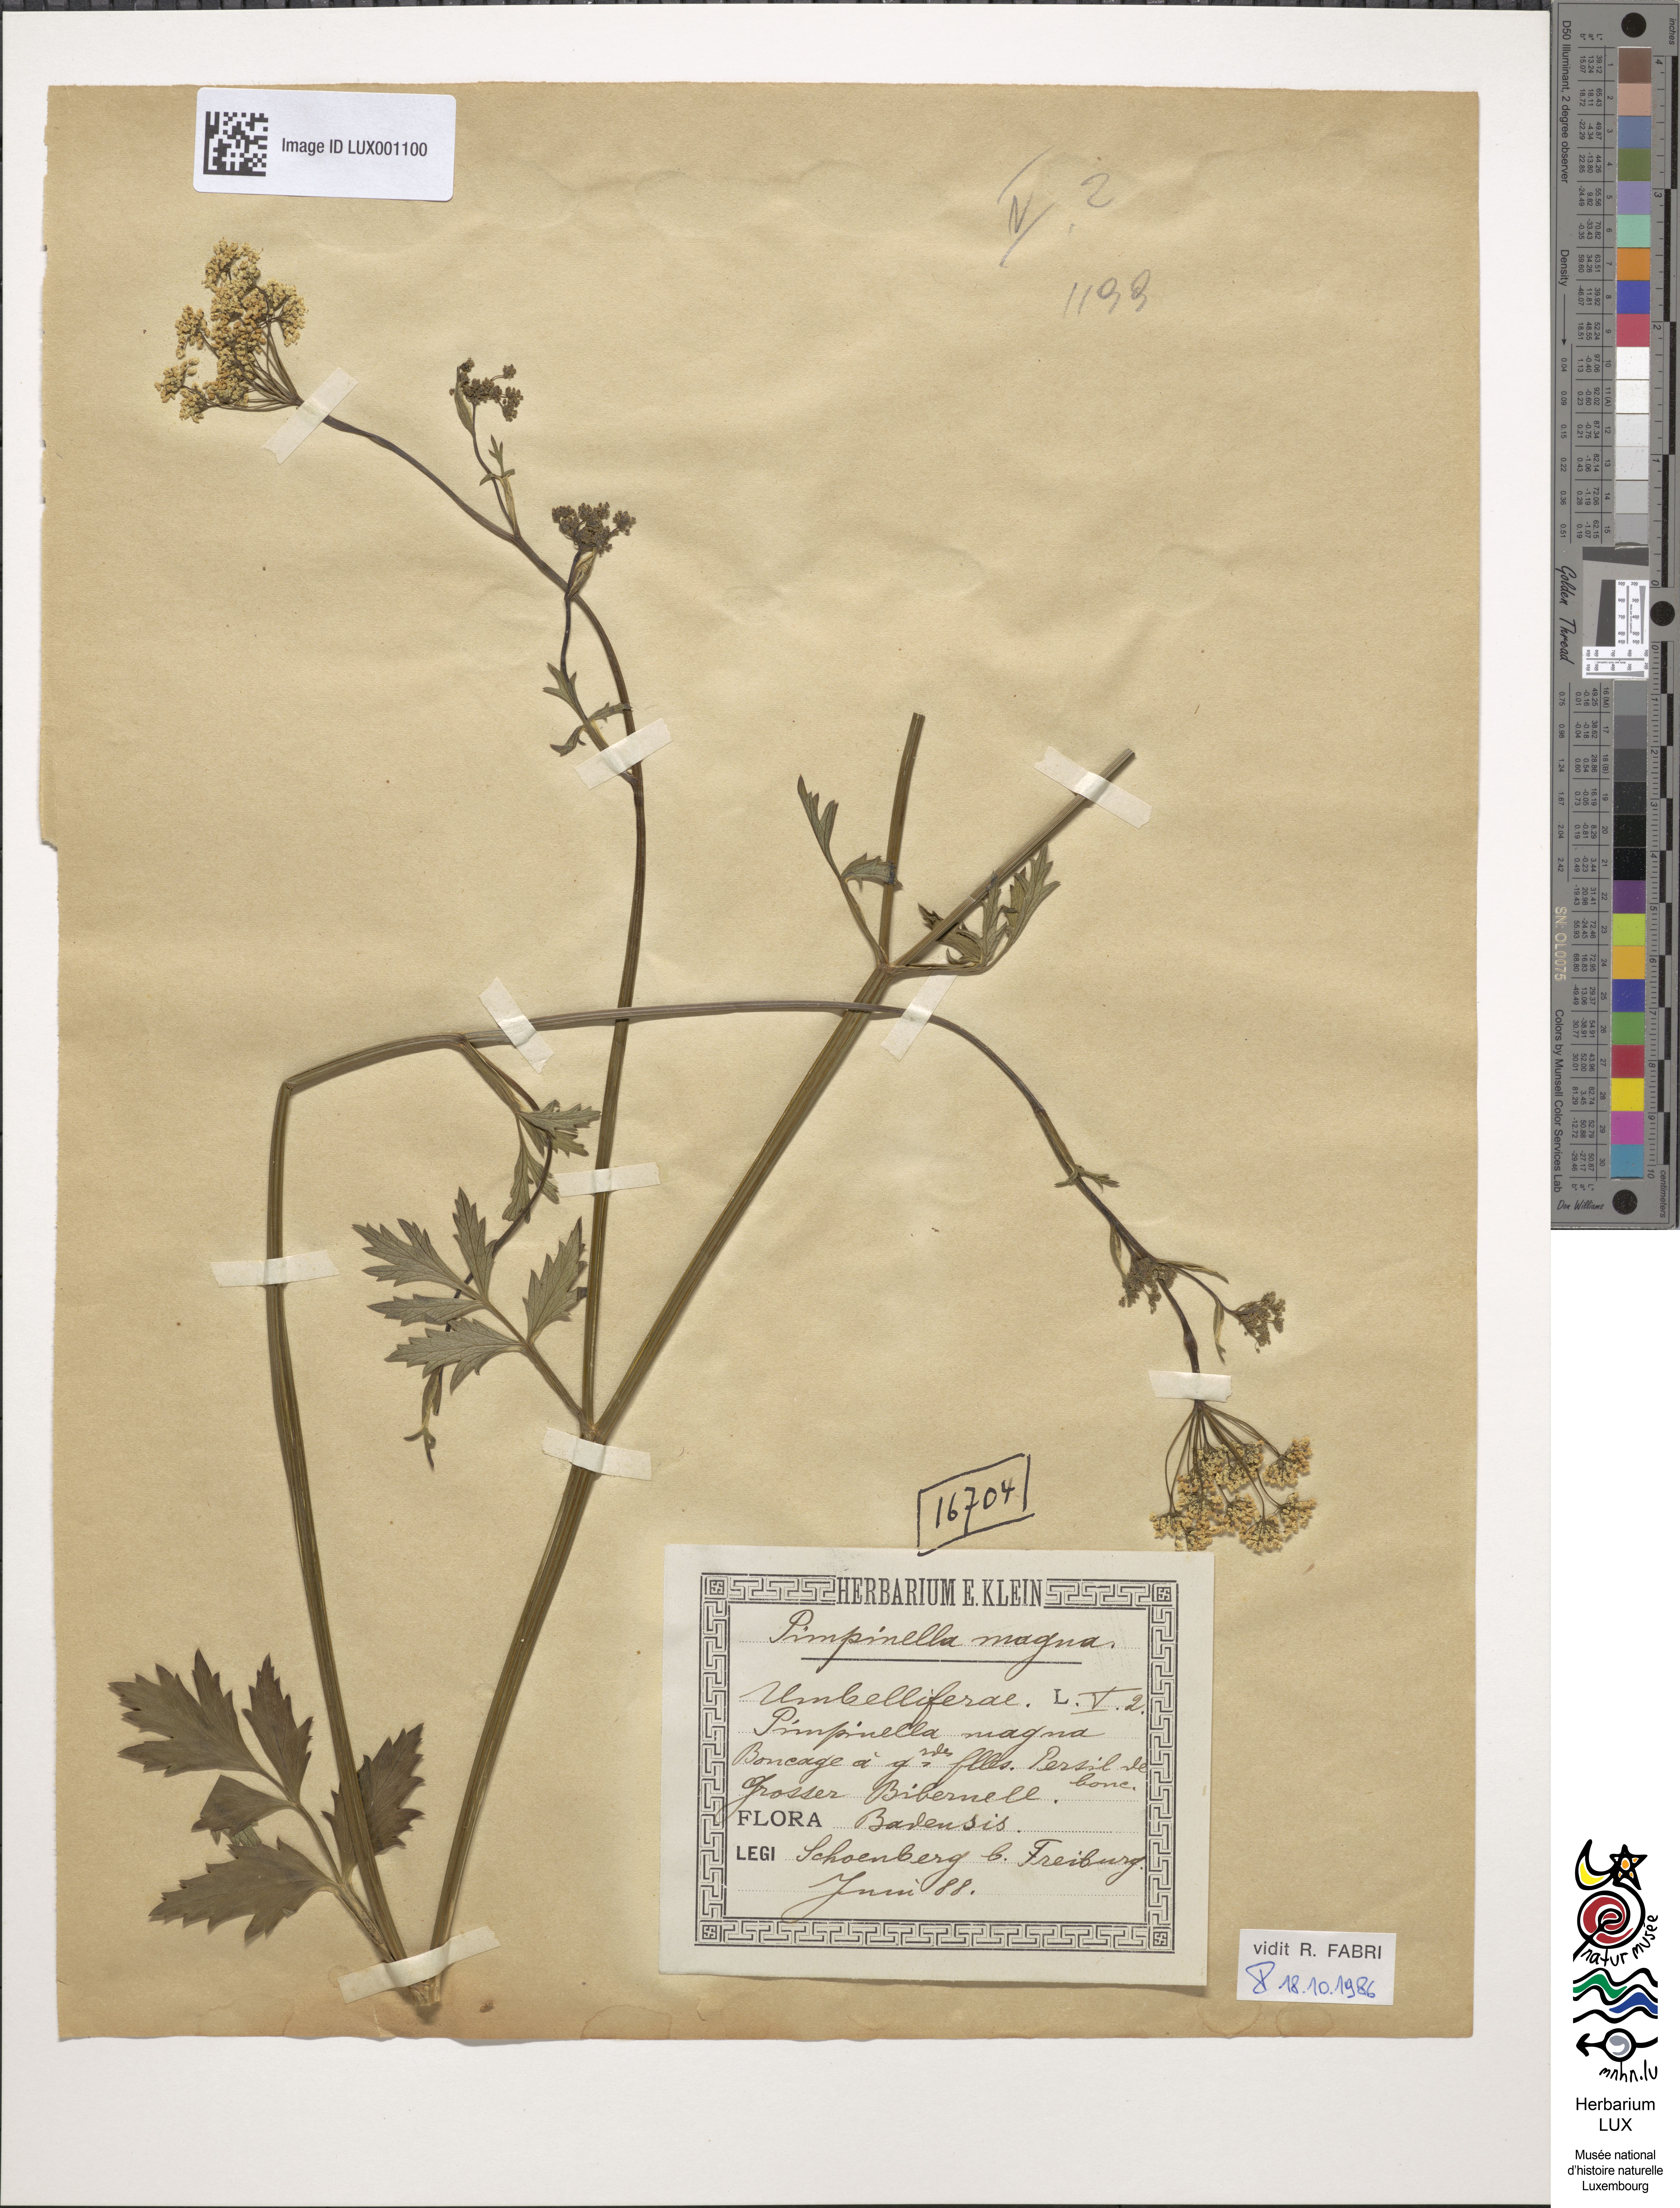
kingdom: Plantae
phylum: Tracheophyta
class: Magnoliopsida
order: Apiales
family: Apiaceae
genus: Pimpinella
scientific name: Pimpinella major
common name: Greater burnet-saxifrage
